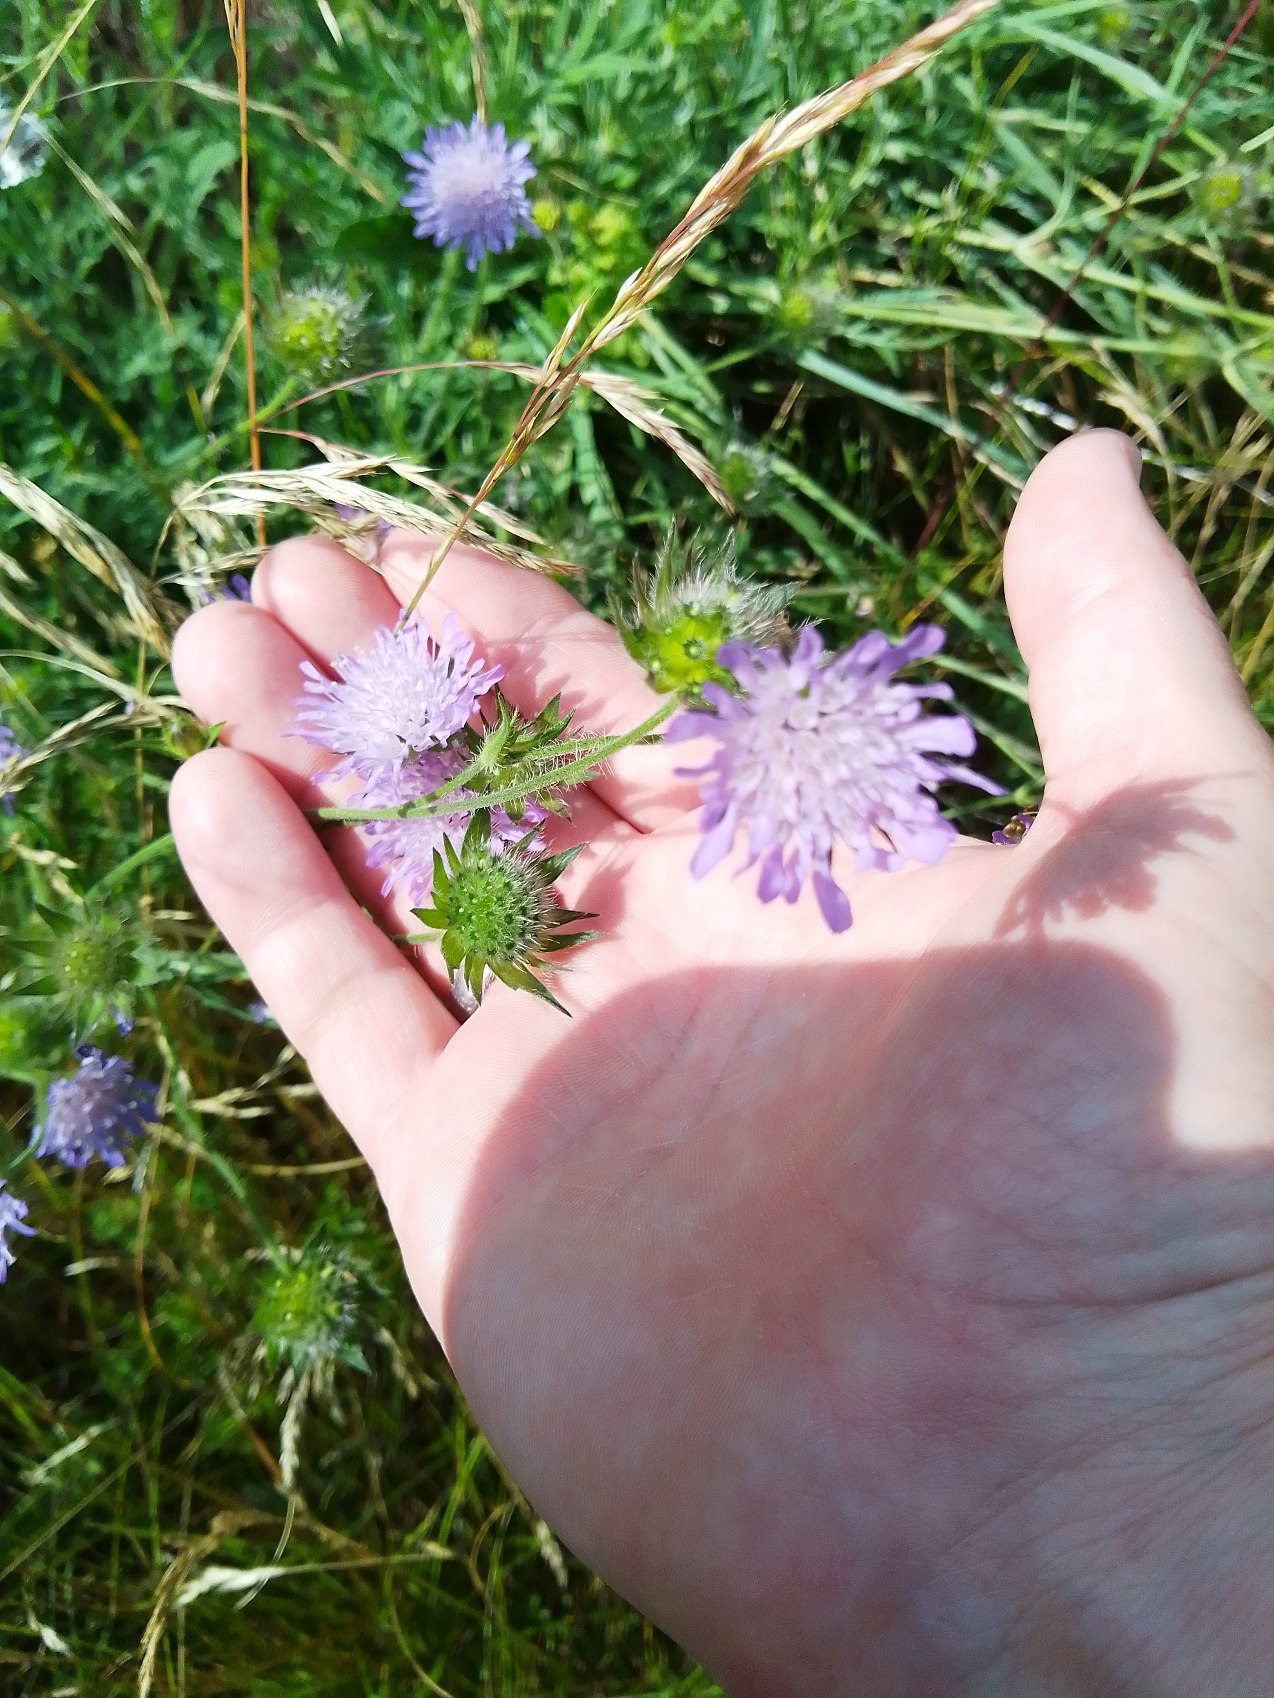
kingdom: Plantae
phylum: Tracheophyta
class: Magnoliopsida
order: Dipsacales
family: Caprifoliaceae
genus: Knautia
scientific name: Knautia arvensis
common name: Blåhat
